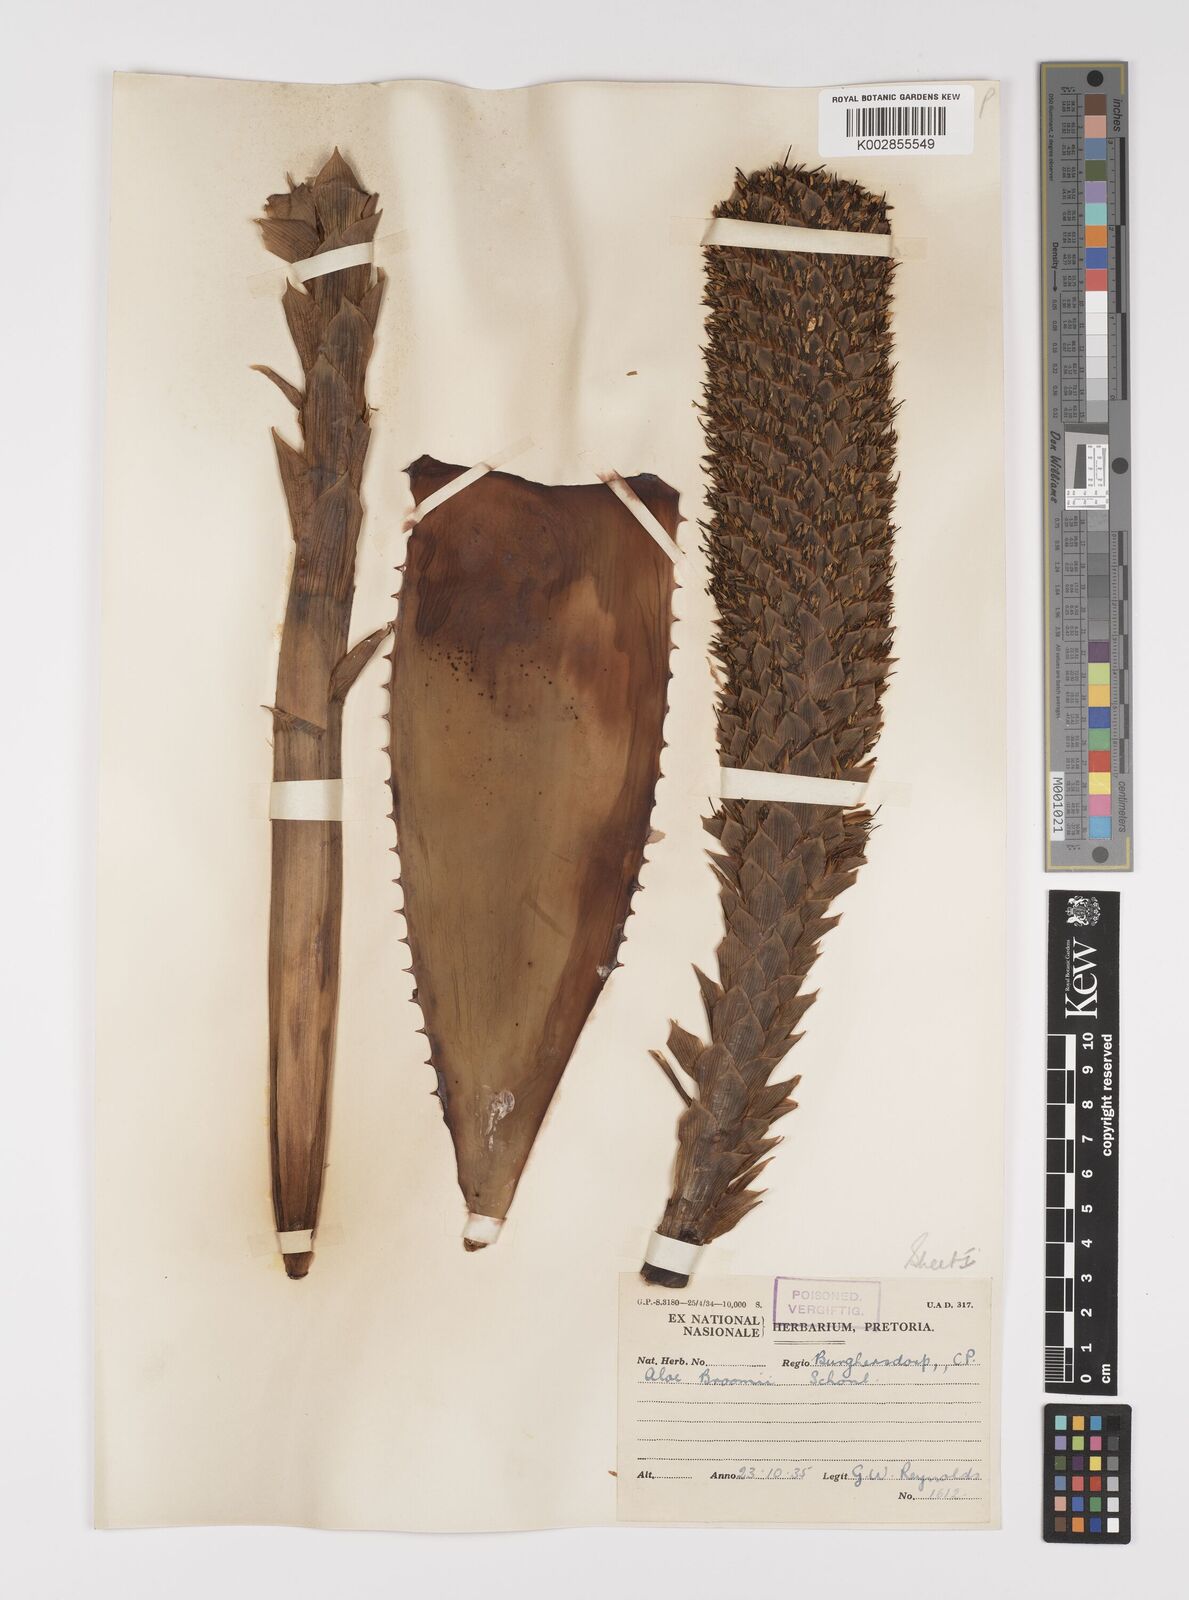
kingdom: Plantae
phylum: Tracheophyta
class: Liliopsida
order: Asparagales
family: Asphodelaceae
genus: Aloe
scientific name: Aloe broomii
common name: Berg alwyn
